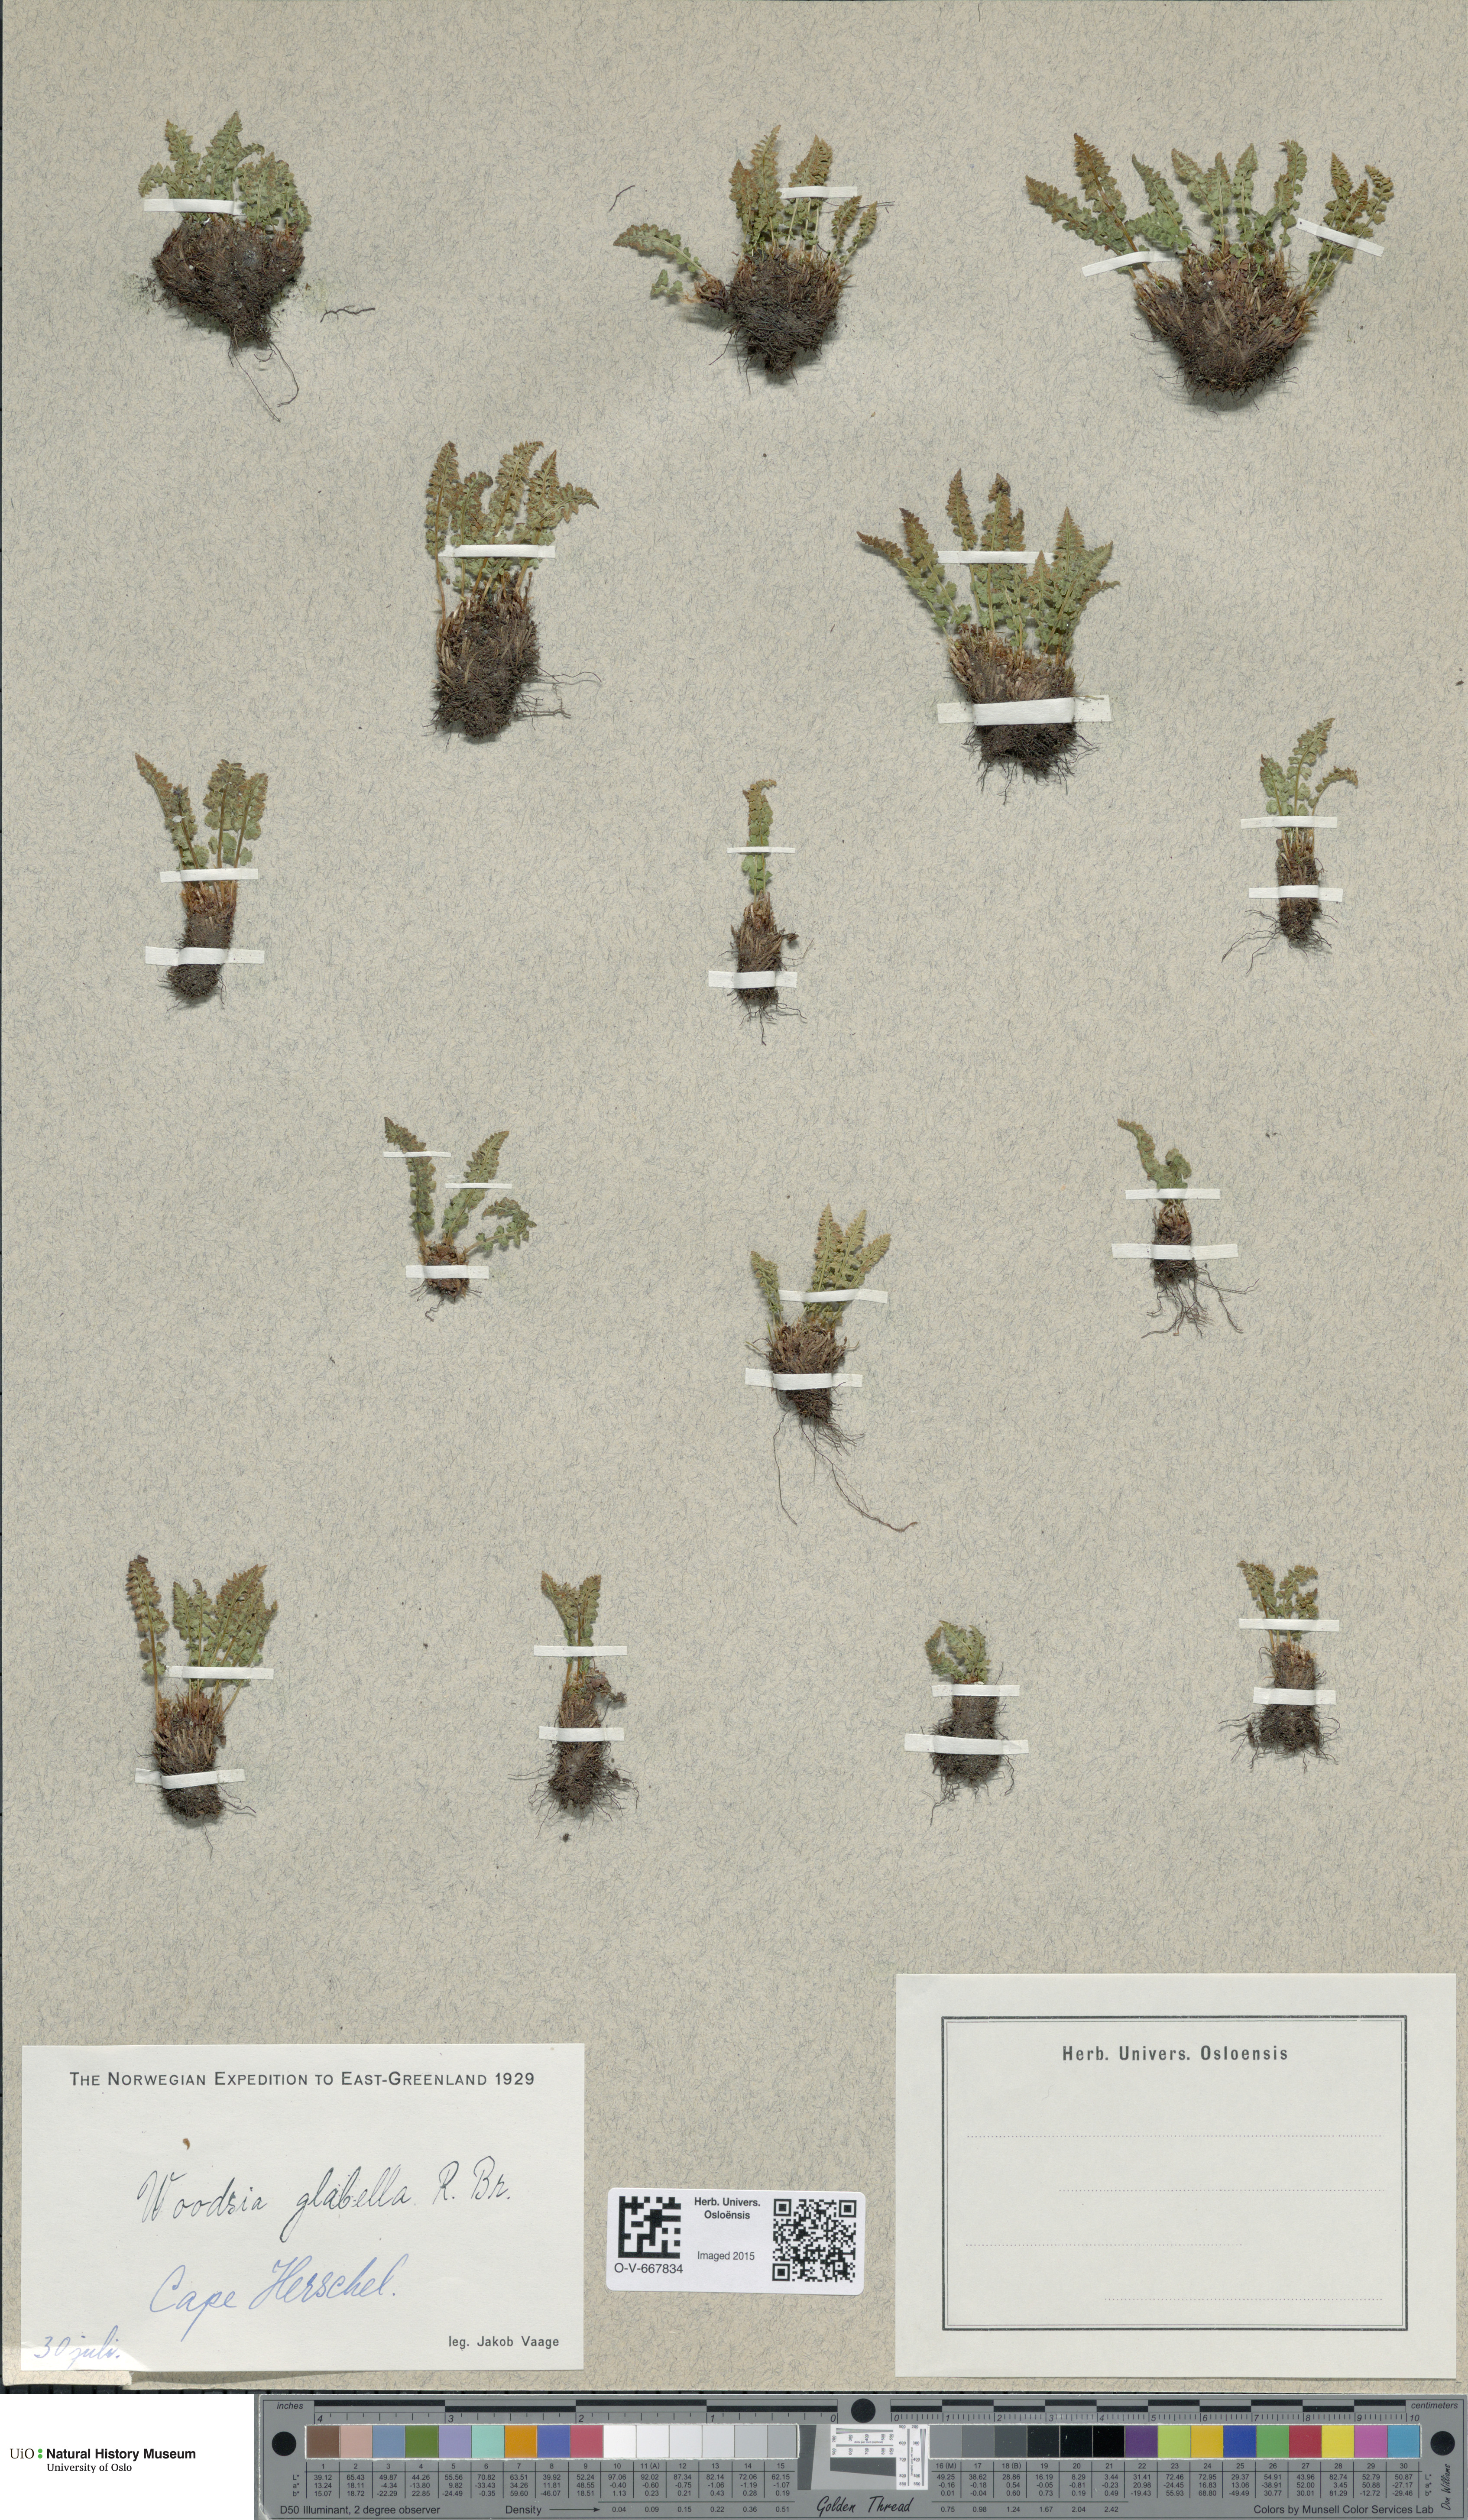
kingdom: Plantae
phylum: Tracheophyta
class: Polypodiopsida
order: Polypodiales
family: Woodsiaceae
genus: Woodsia
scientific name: Woodsia glabella
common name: Smooth woodsia
